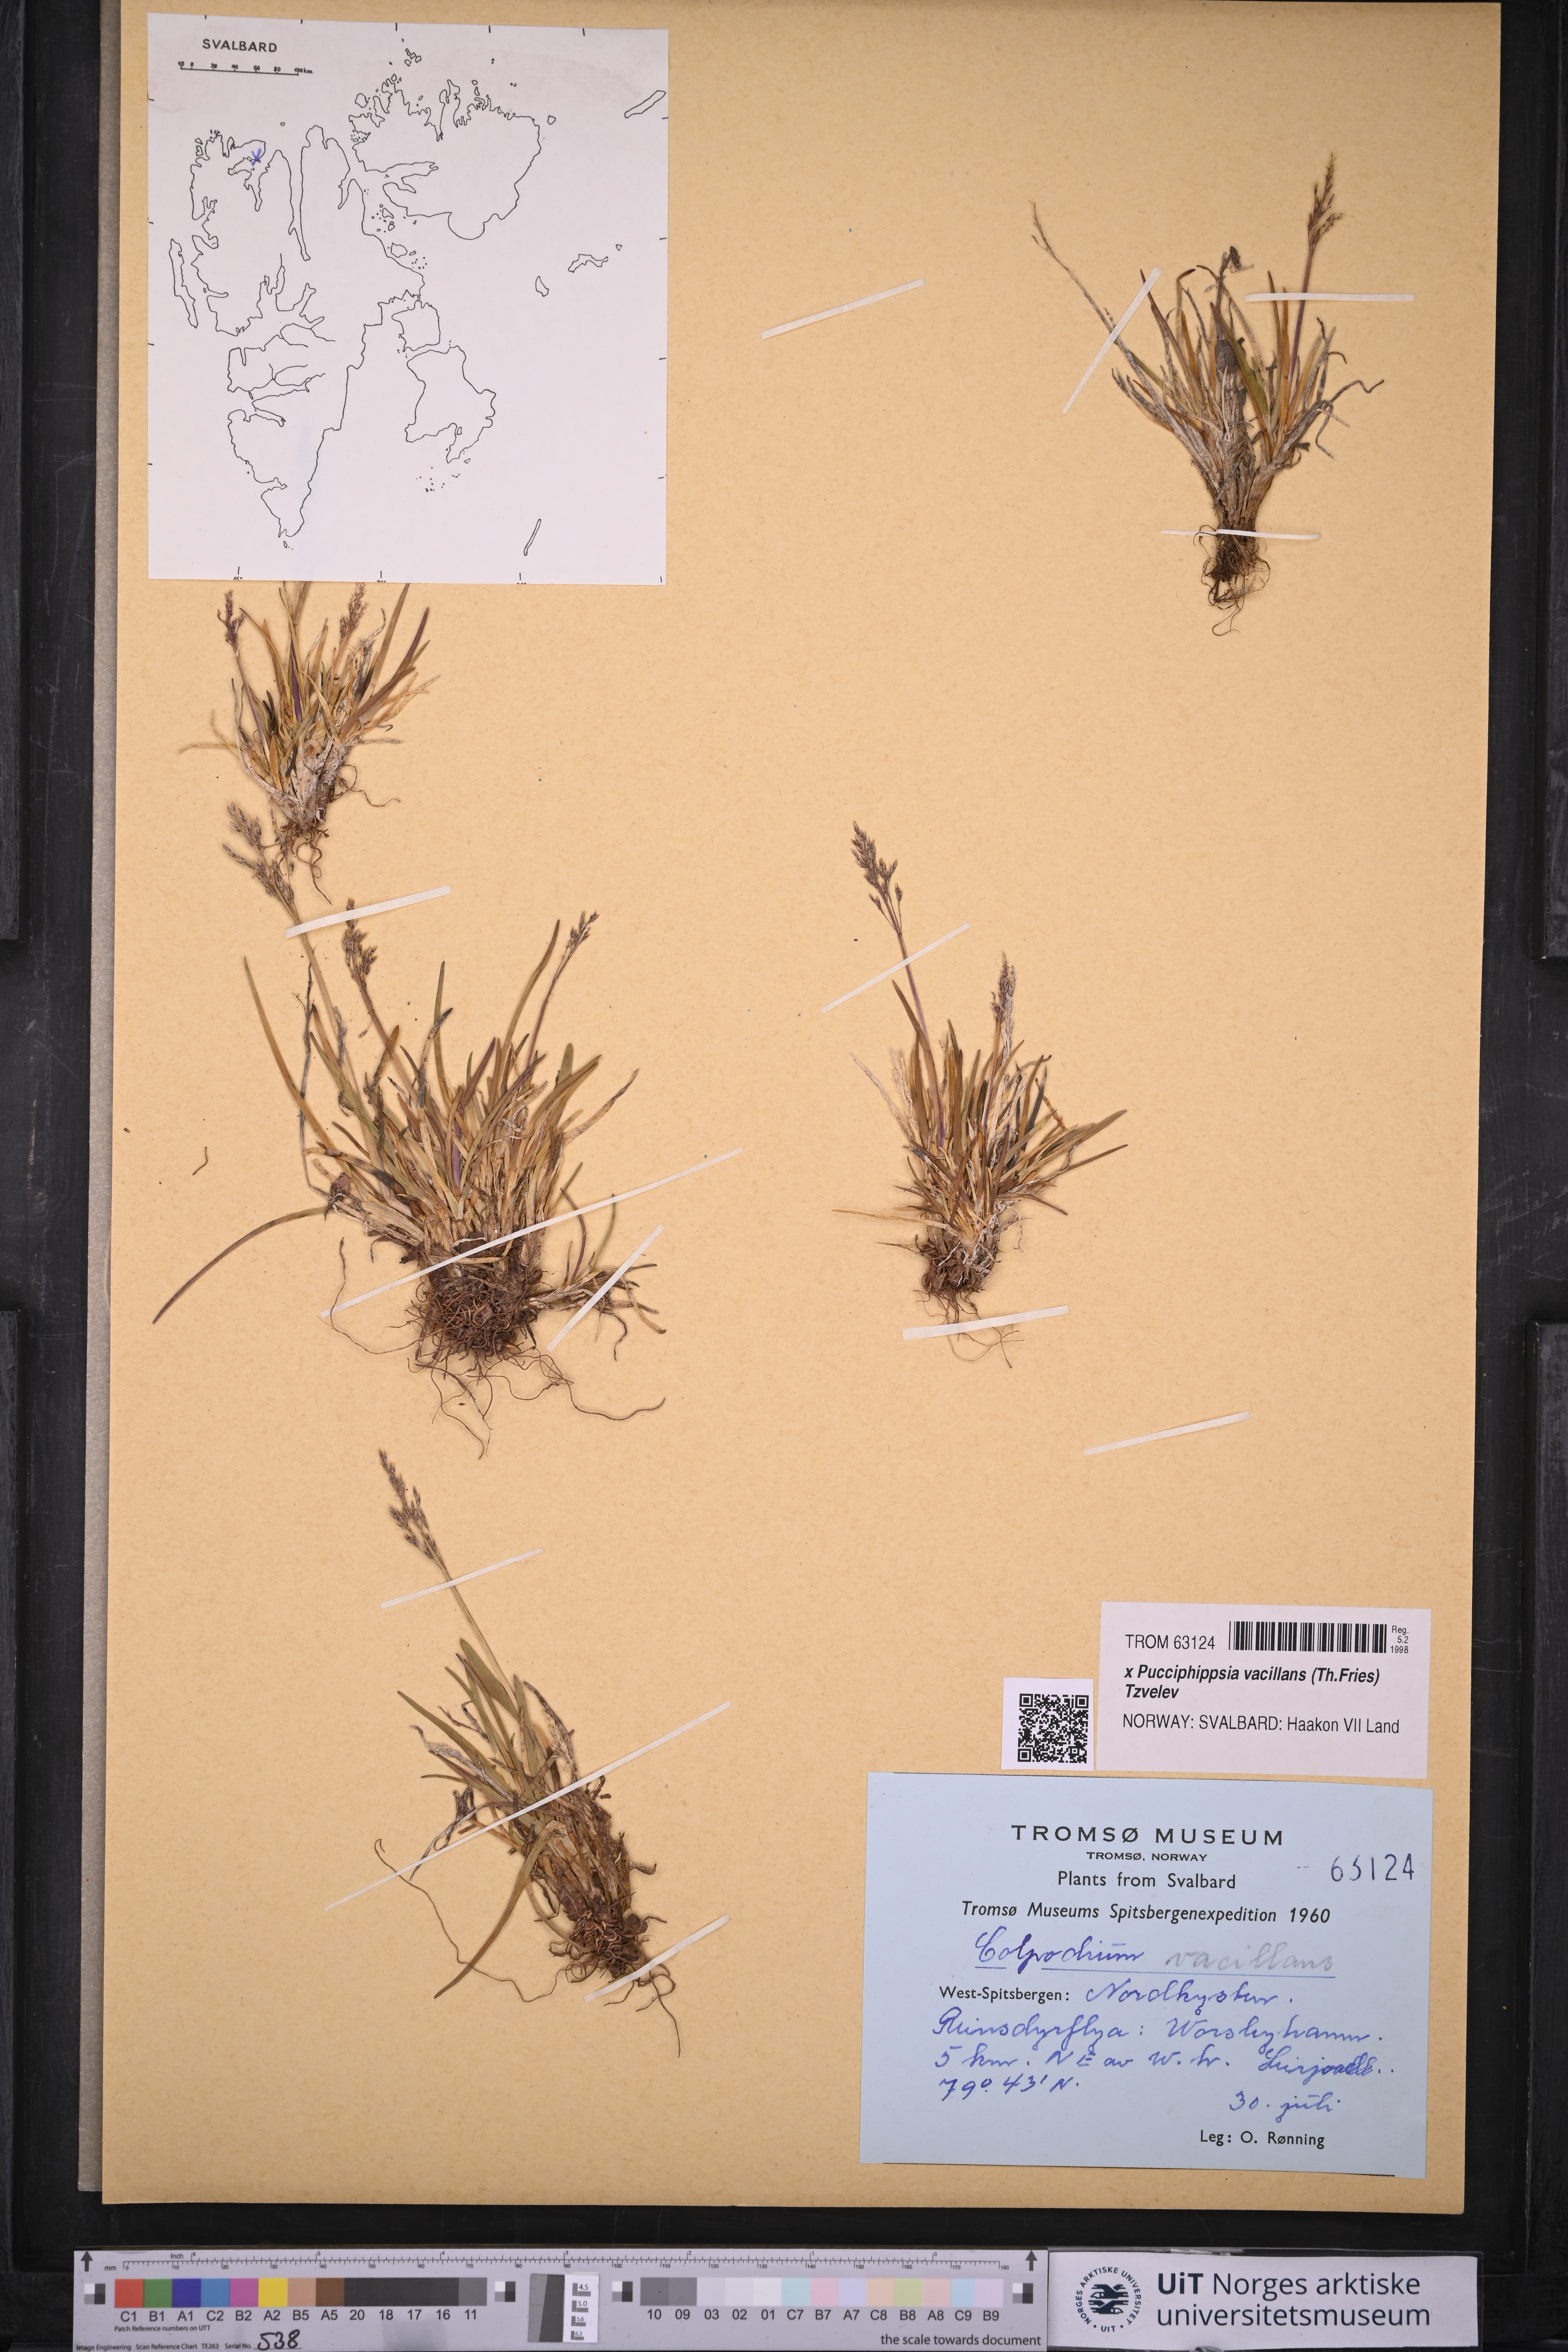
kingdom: Plantae
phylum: Tracheophyta
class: Liliopsida
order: Poales
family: Poaceae
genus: Pucciphippsia
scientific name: Pucciphippsia vacillans
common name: Svalbard grass
